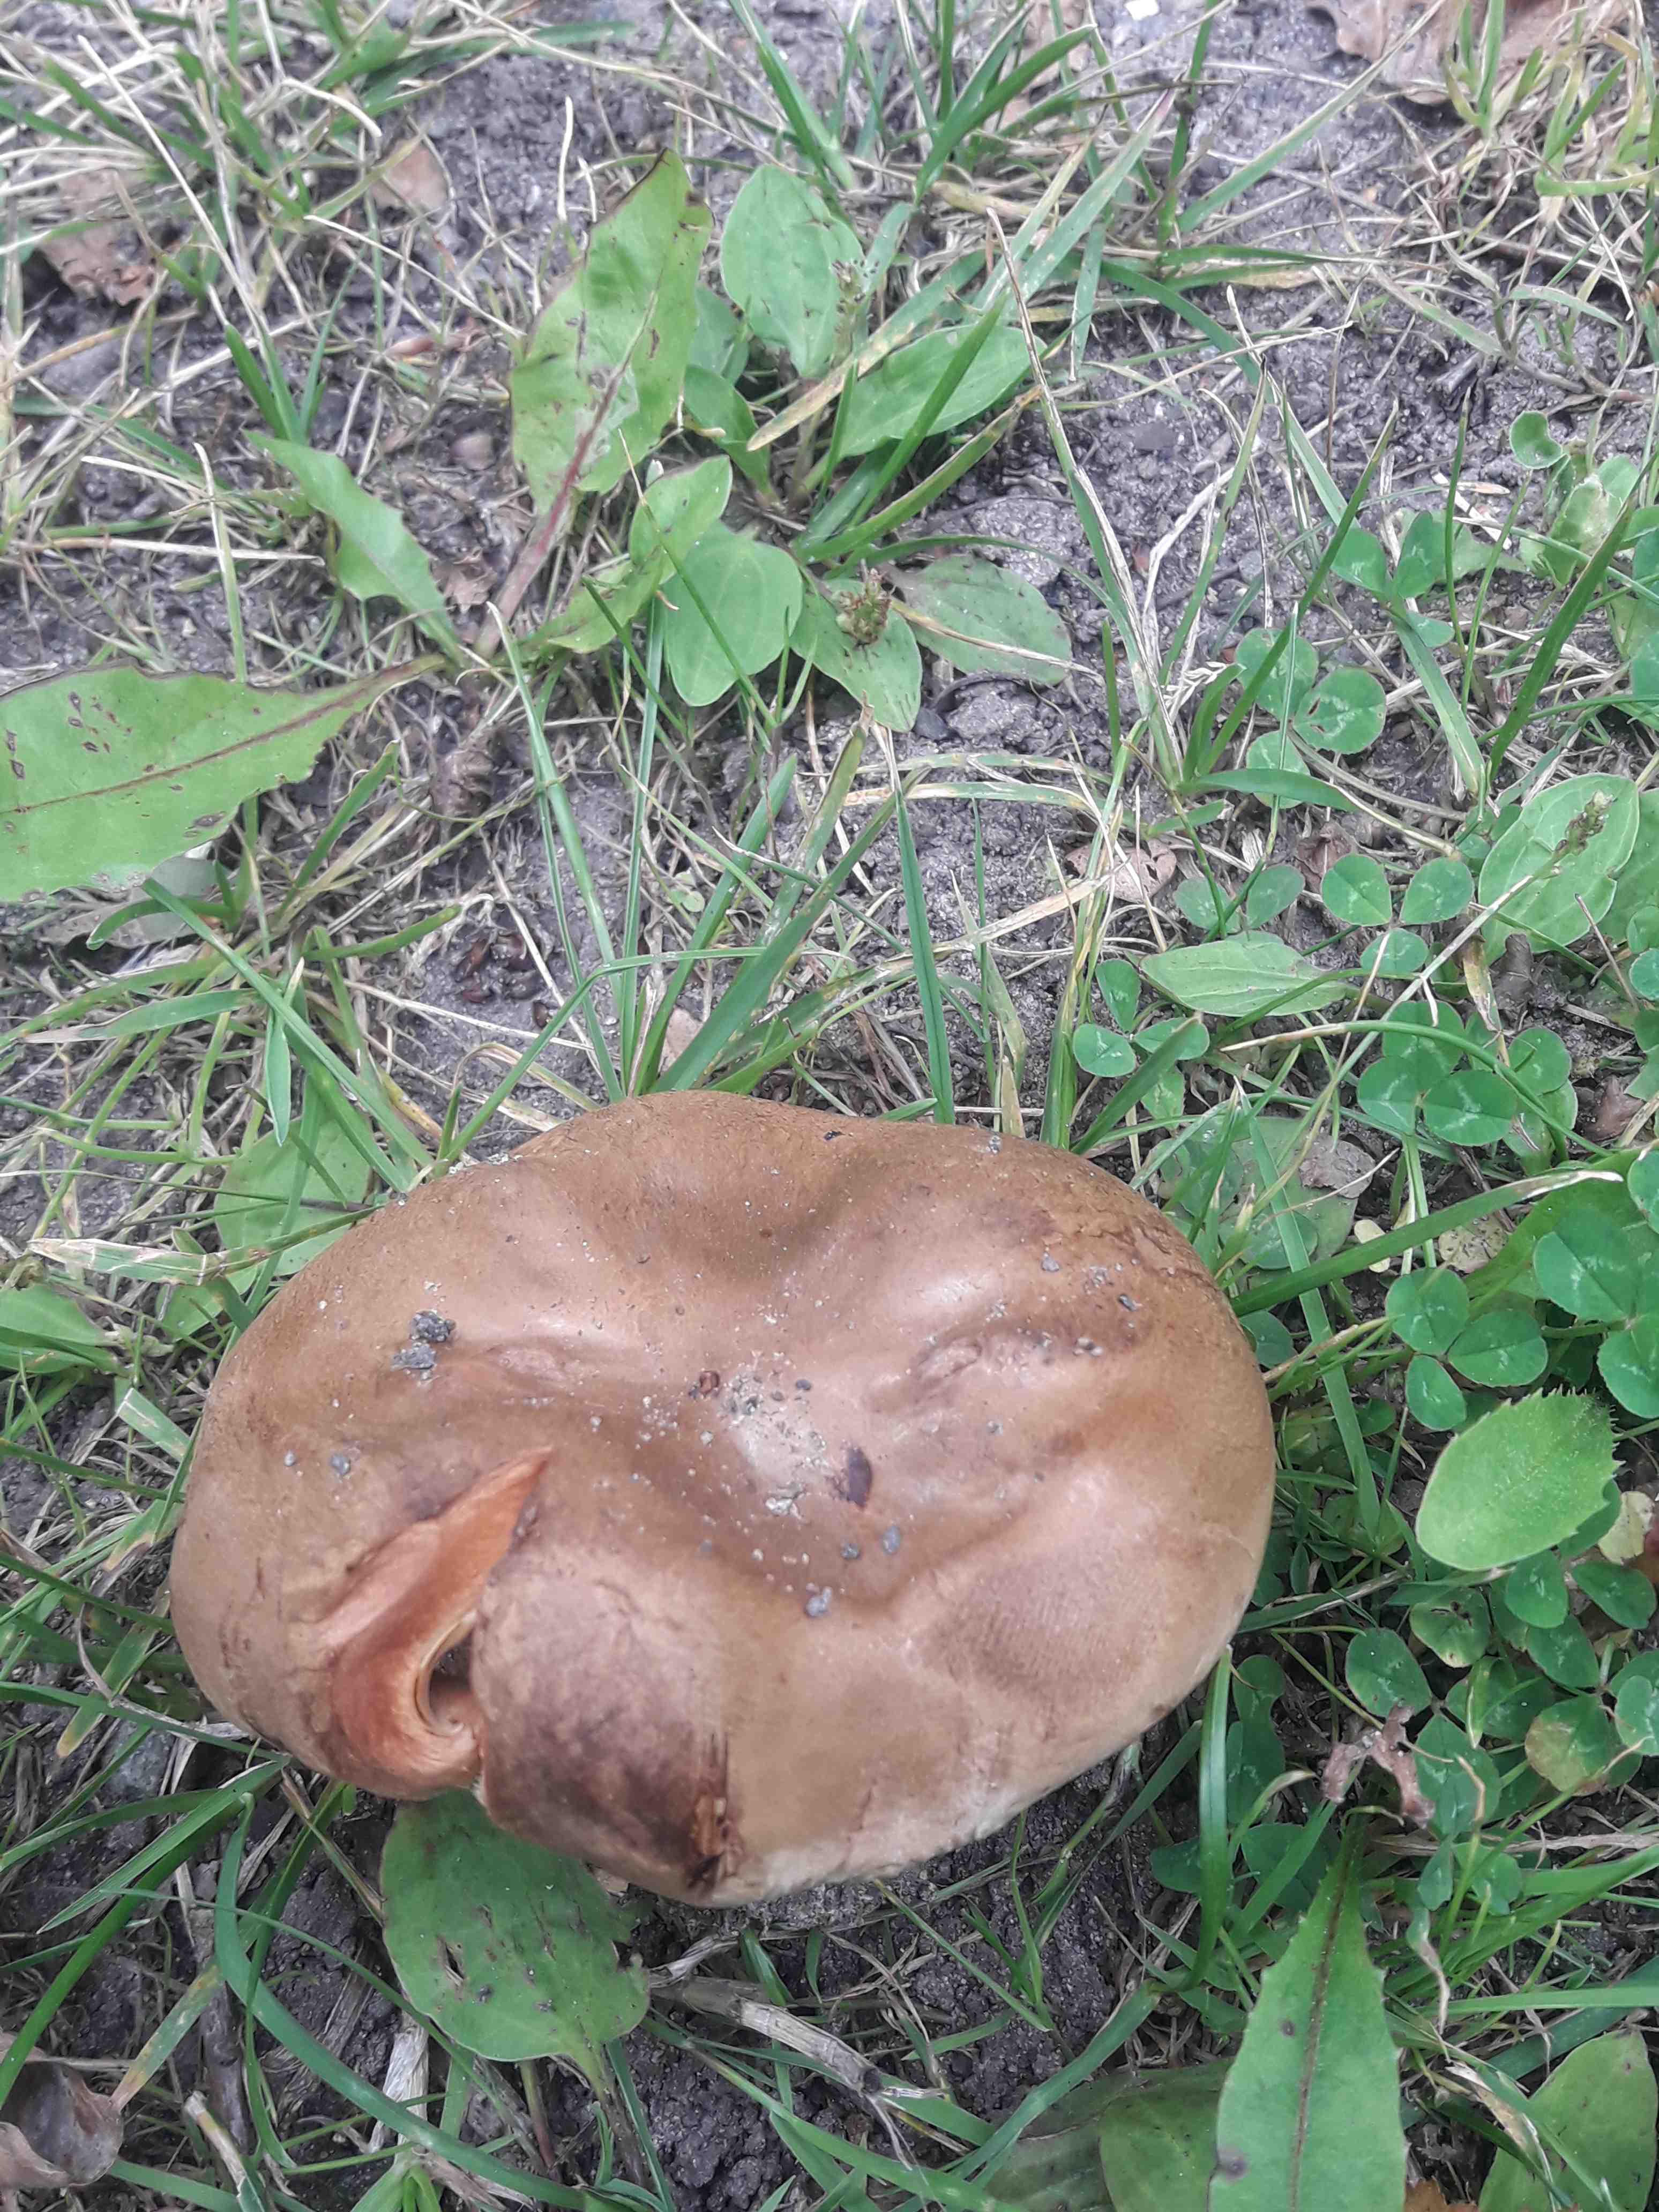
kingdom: Fungi
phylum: Basidiomycota
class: Agaricomycetes
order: Boletales
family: Paxillaceae
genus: Paxillus
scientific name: Paxillus
